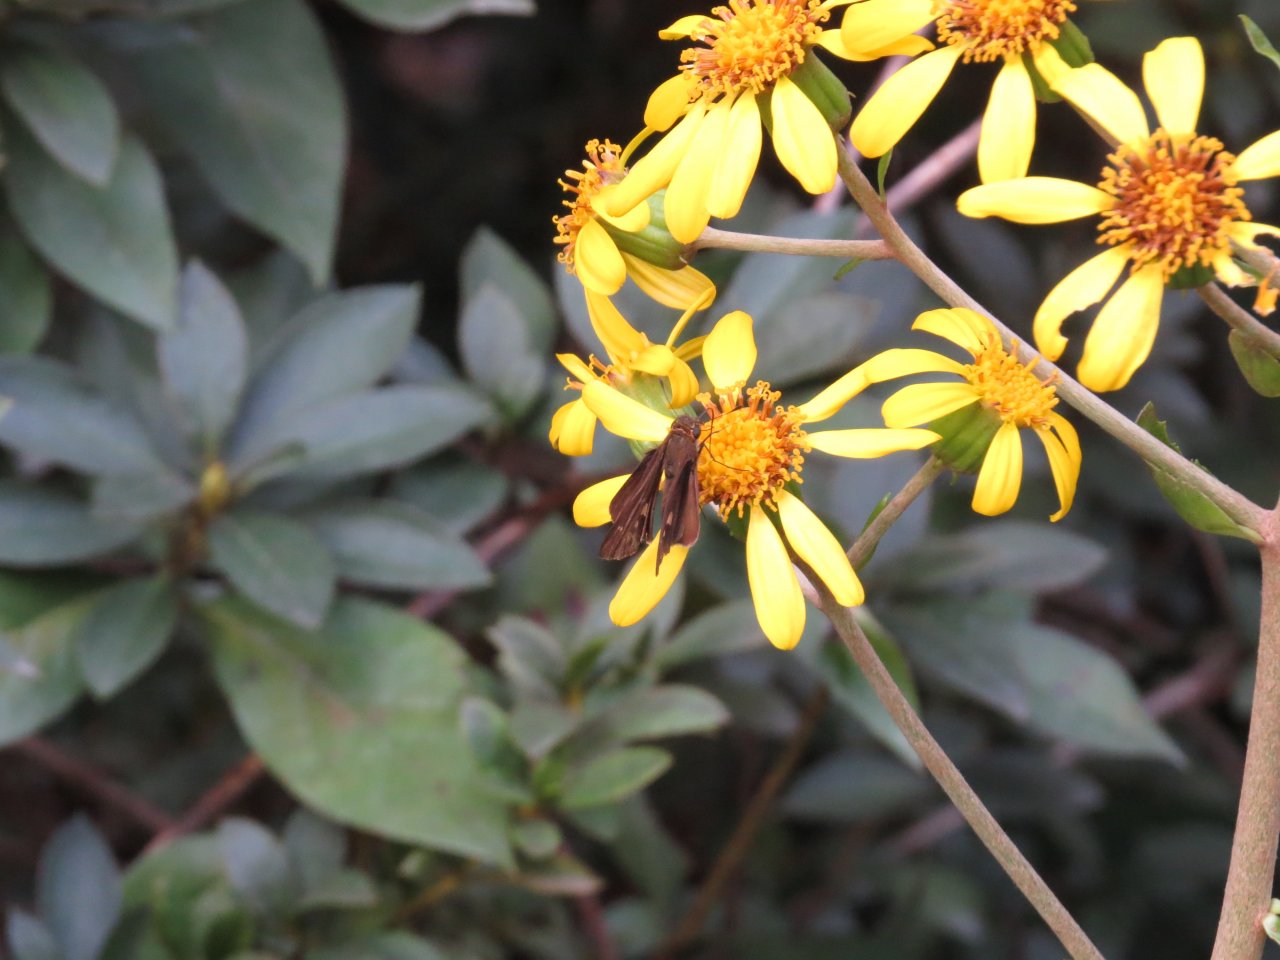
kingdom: Animalia
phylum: Arthropoda
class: Insecta
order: Lepidoptera
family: Hesperiidae
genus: Panoquina
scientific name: Panoquina ocola
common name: Ocola Skipper
